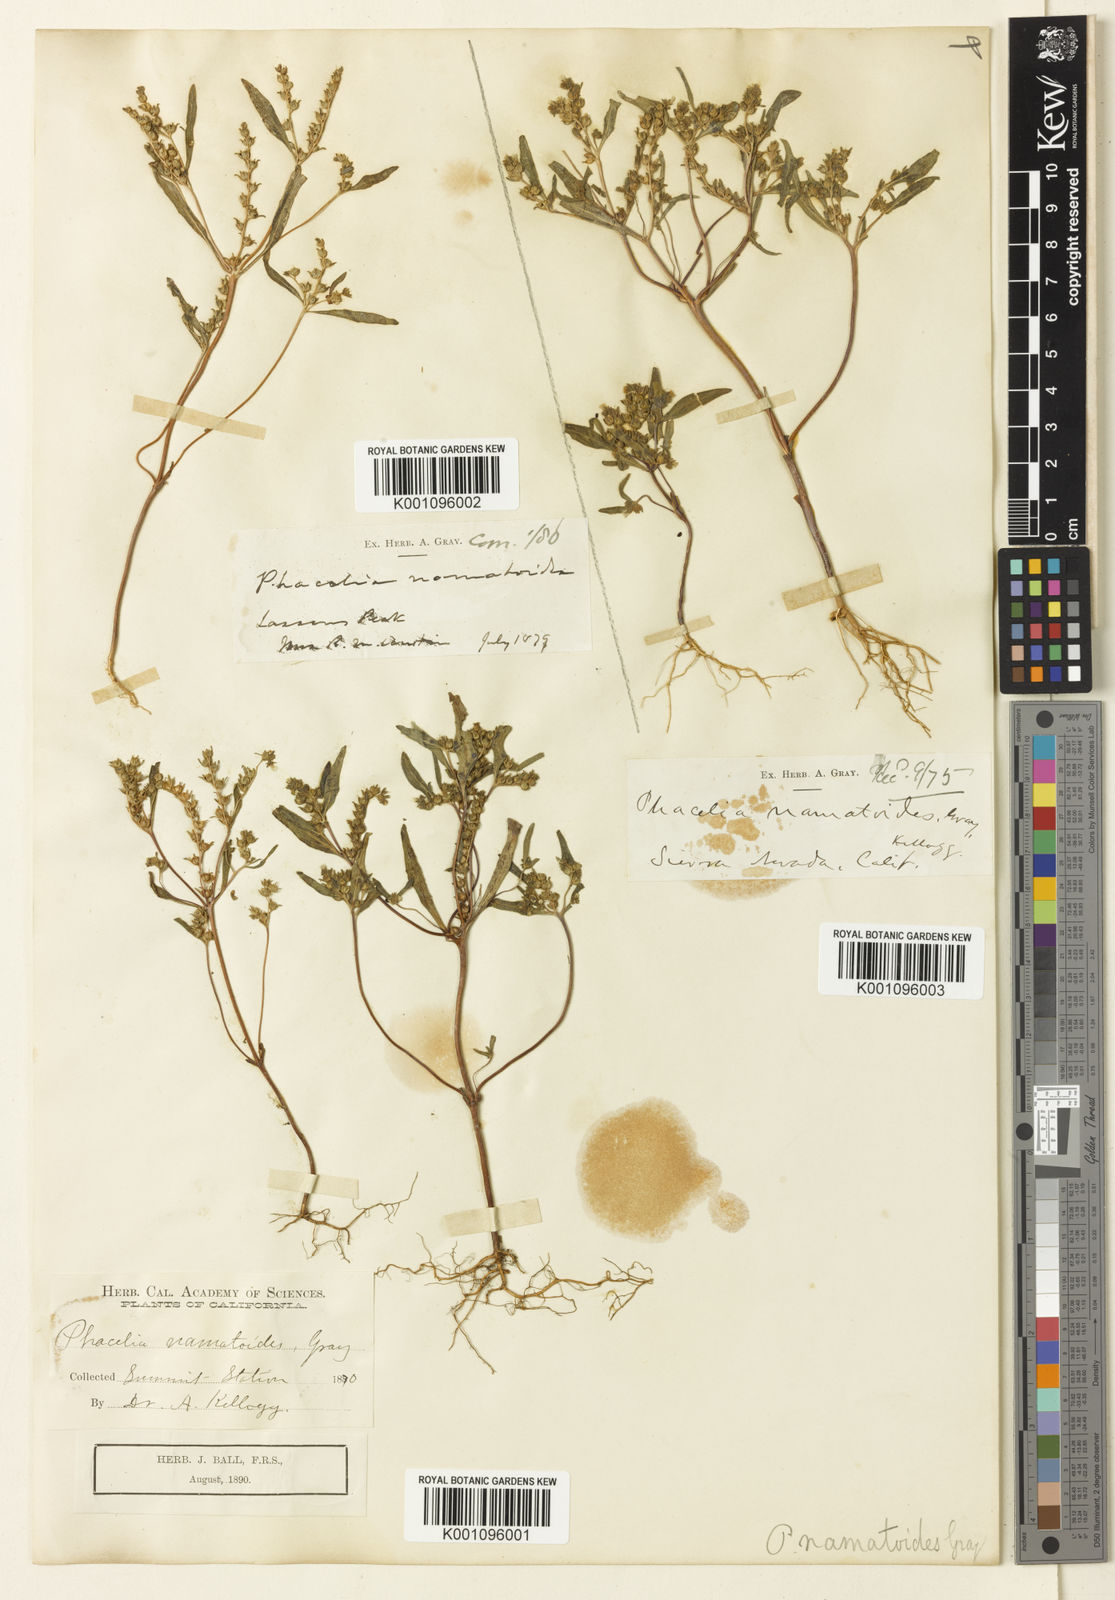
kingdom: Plantae
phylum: Tracheophyta
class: Magnoliopsida
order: Boraginales
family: Hydrophyllaceae
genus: Phacelia
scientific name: Phacelia racemosa
